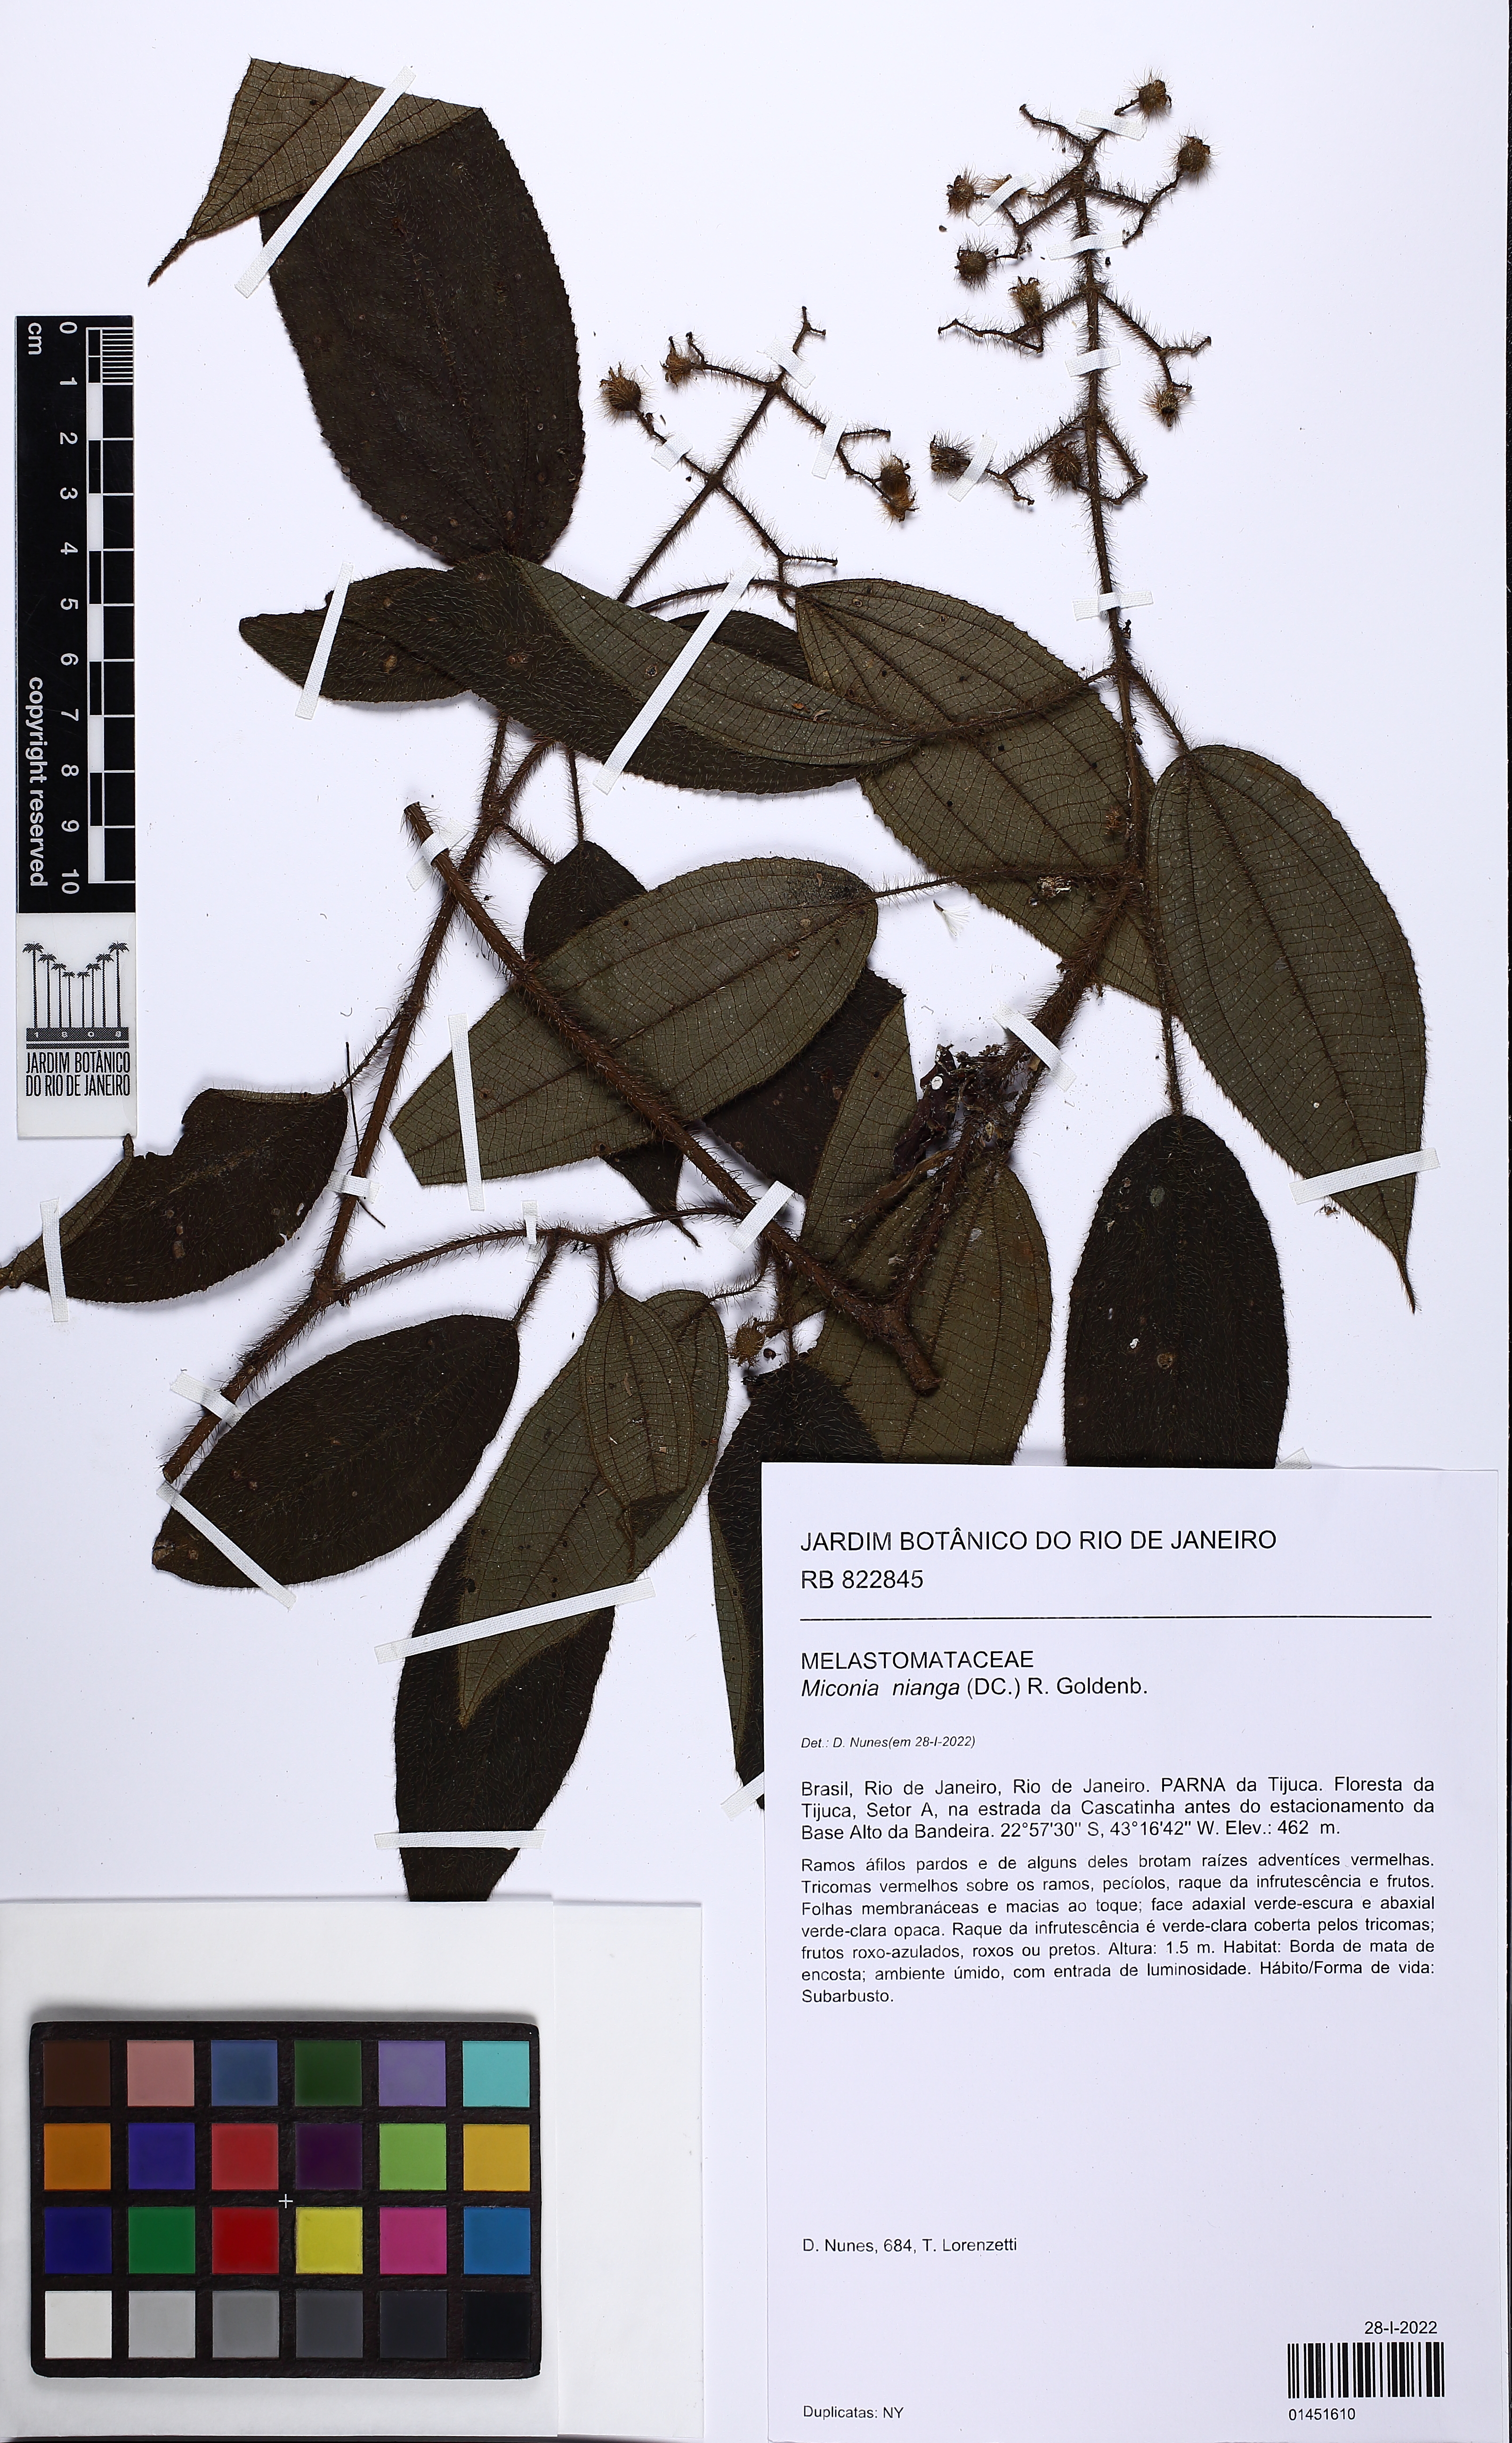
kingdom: Plantae
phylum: Tracheophyta
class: Magnoliopsida
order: Myrtales
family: Melastomataceae
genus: Miconia
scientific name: Miconia nianga
